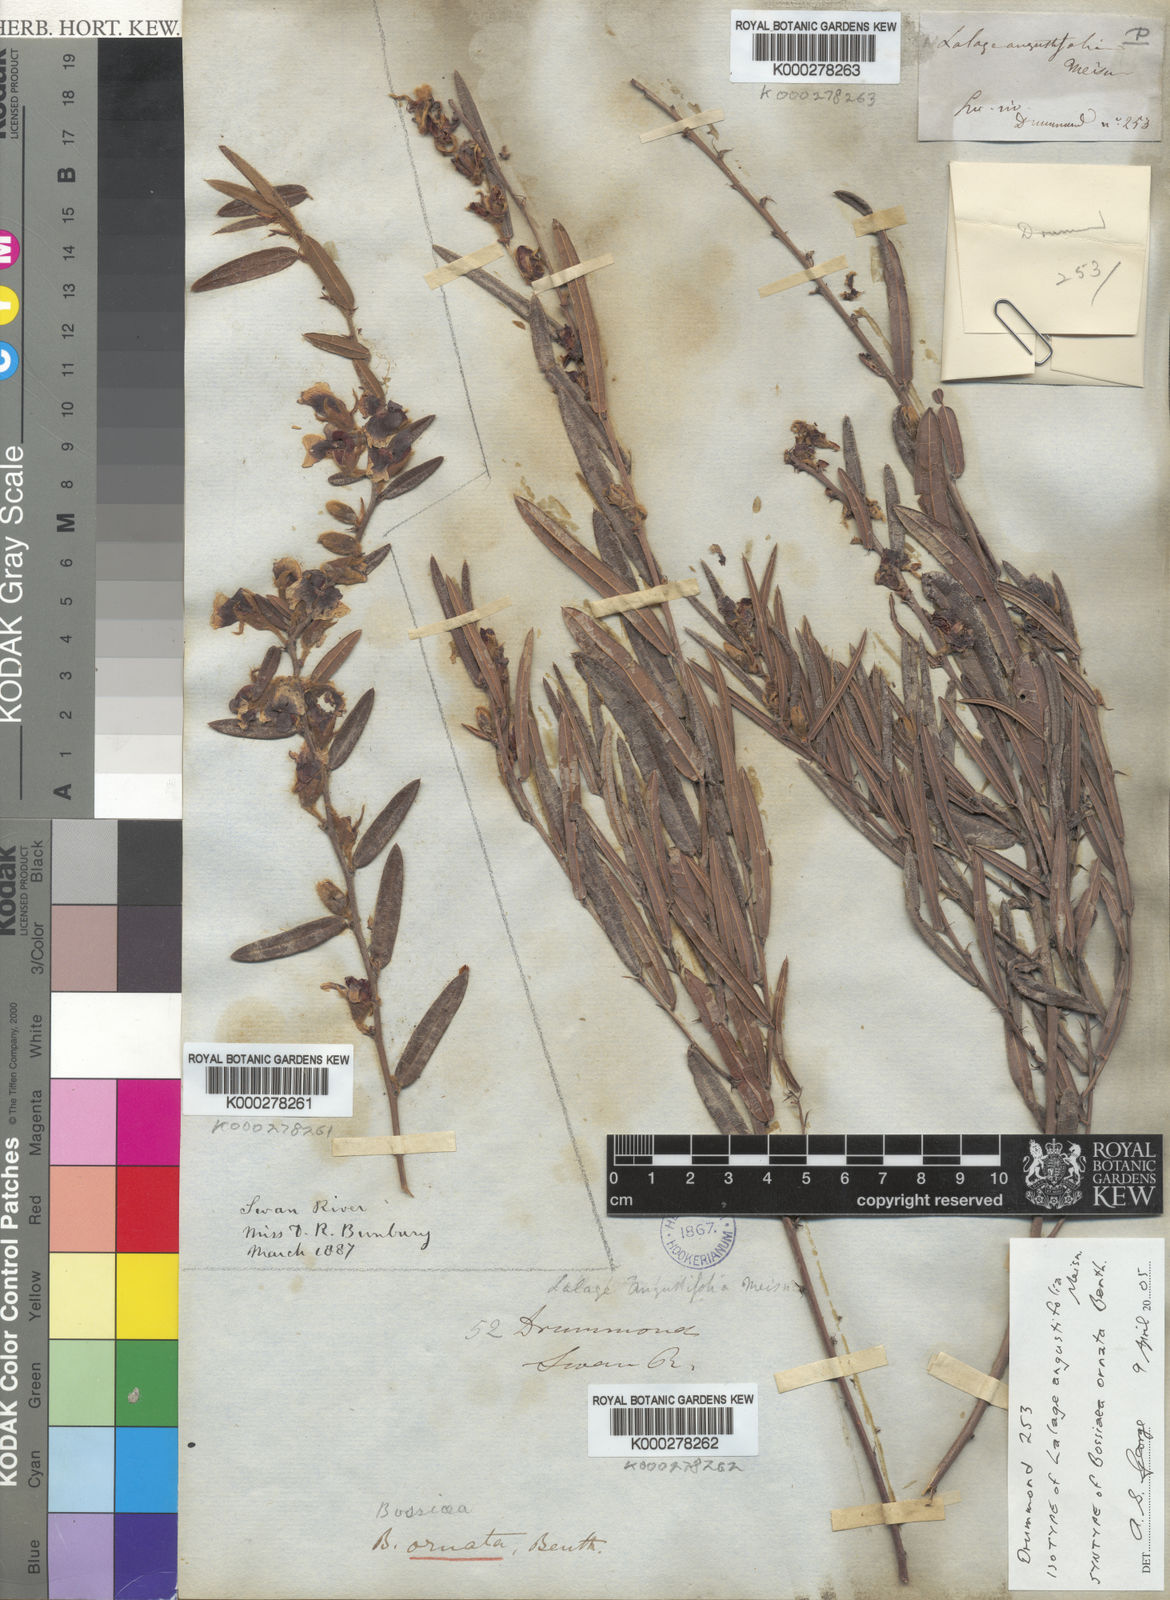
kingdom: Plantae
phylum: Tracheophyta
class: Magnoliopsida
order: Fabales
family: Fabaceae
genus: Bossiaea
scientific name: Bossiaea ornata
